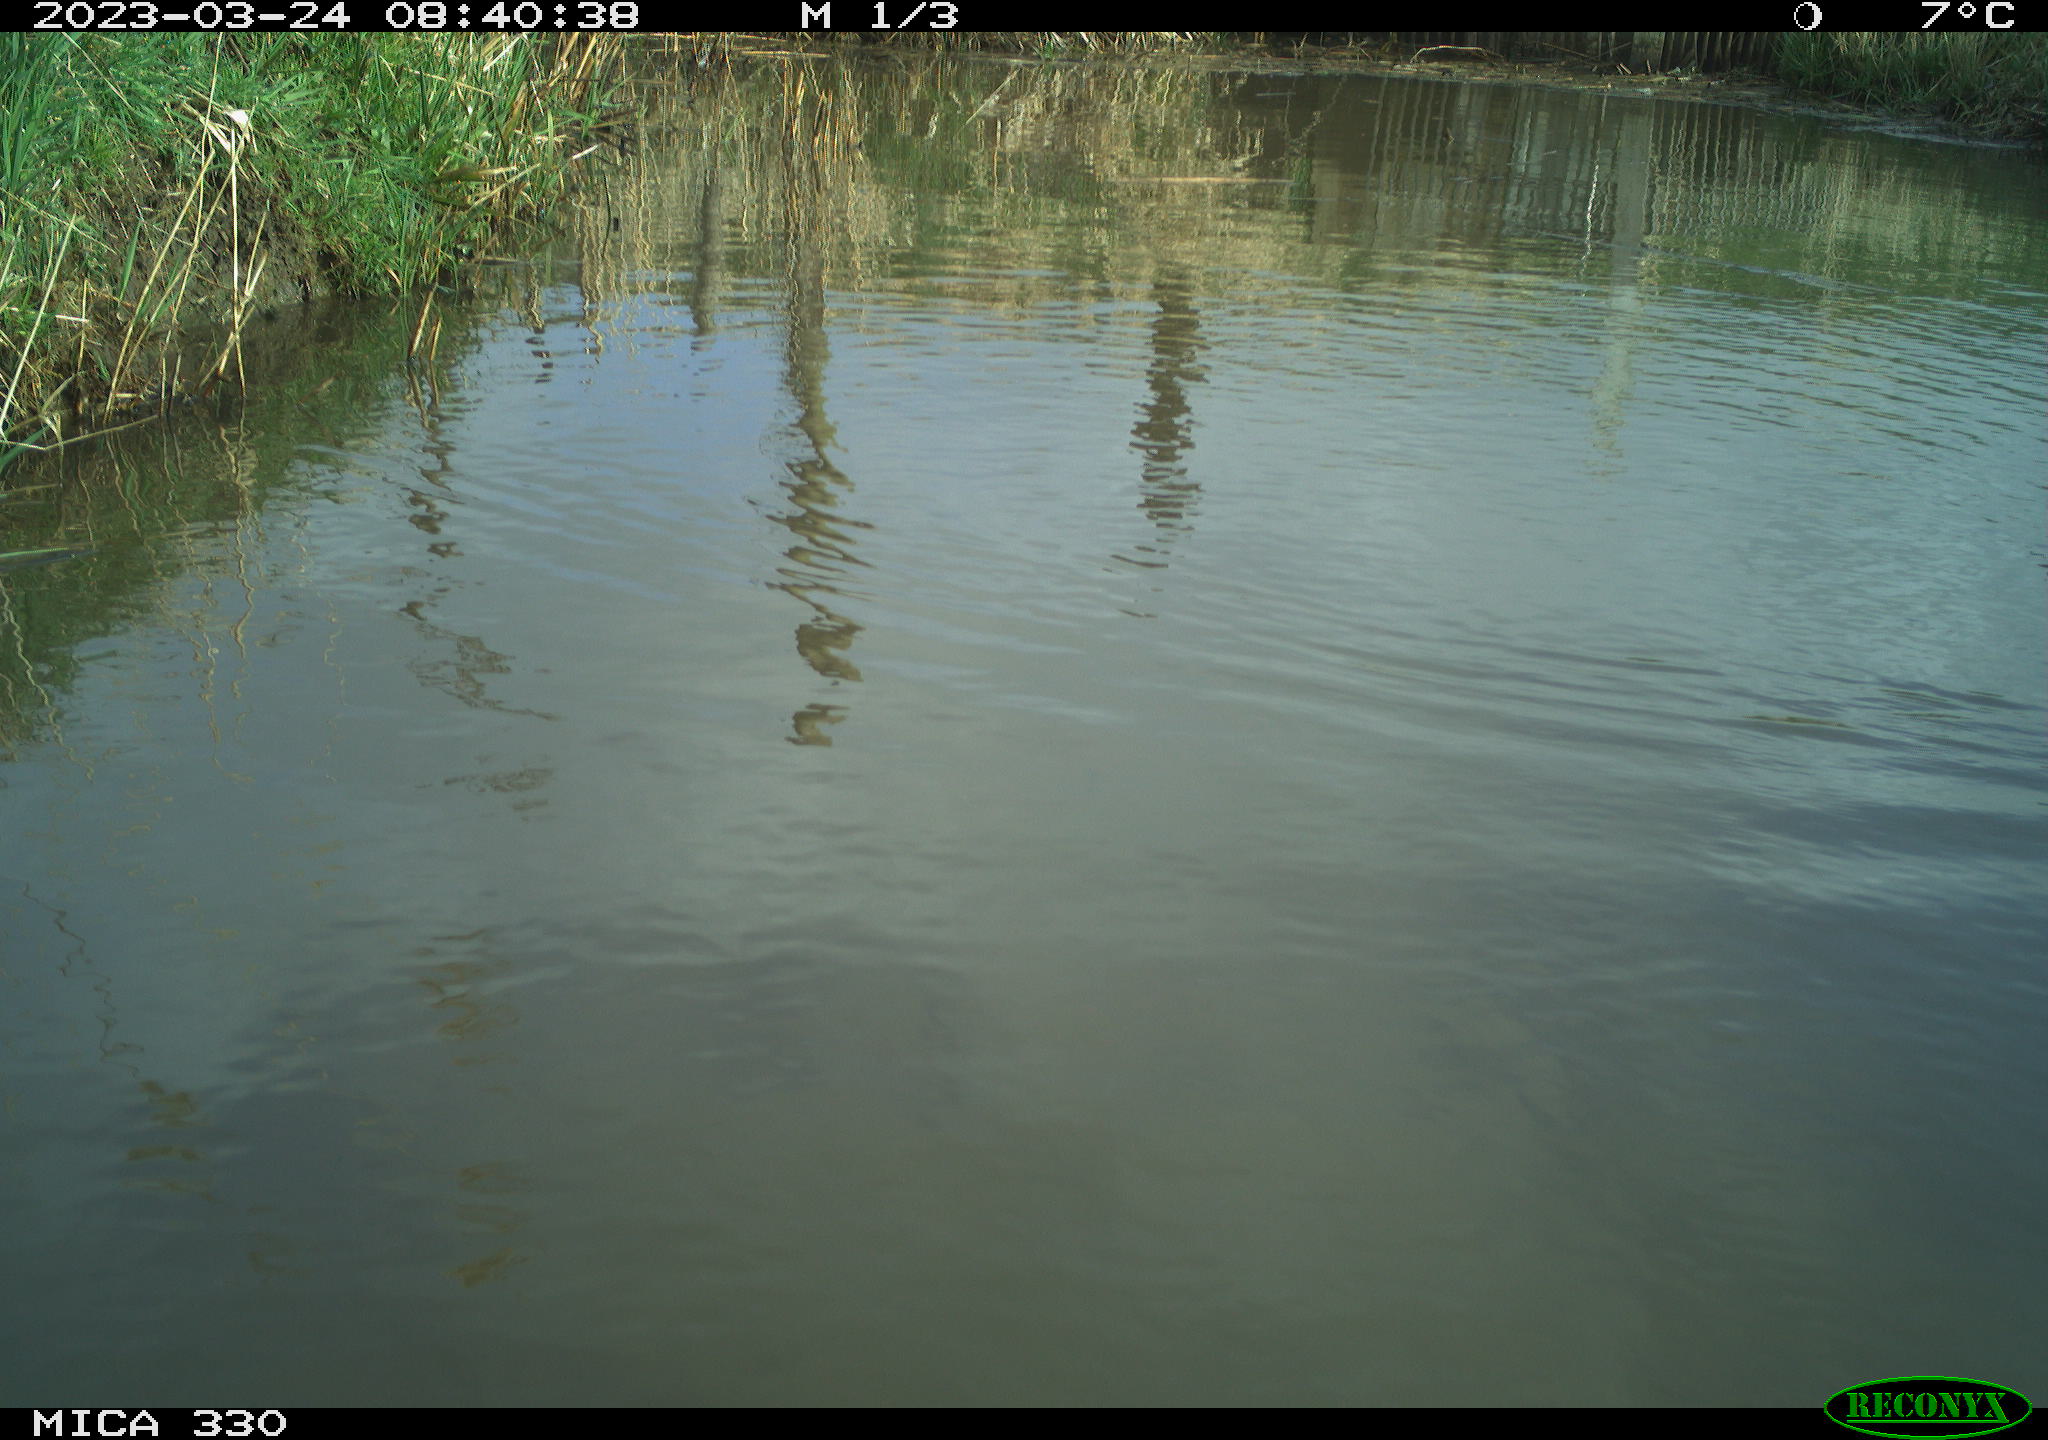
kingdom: Animalia
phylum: Chordata
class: Aves
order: Gruiformes
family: Rallidae
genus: Fulica
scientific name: Fulica atra
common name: Eurasian coot
